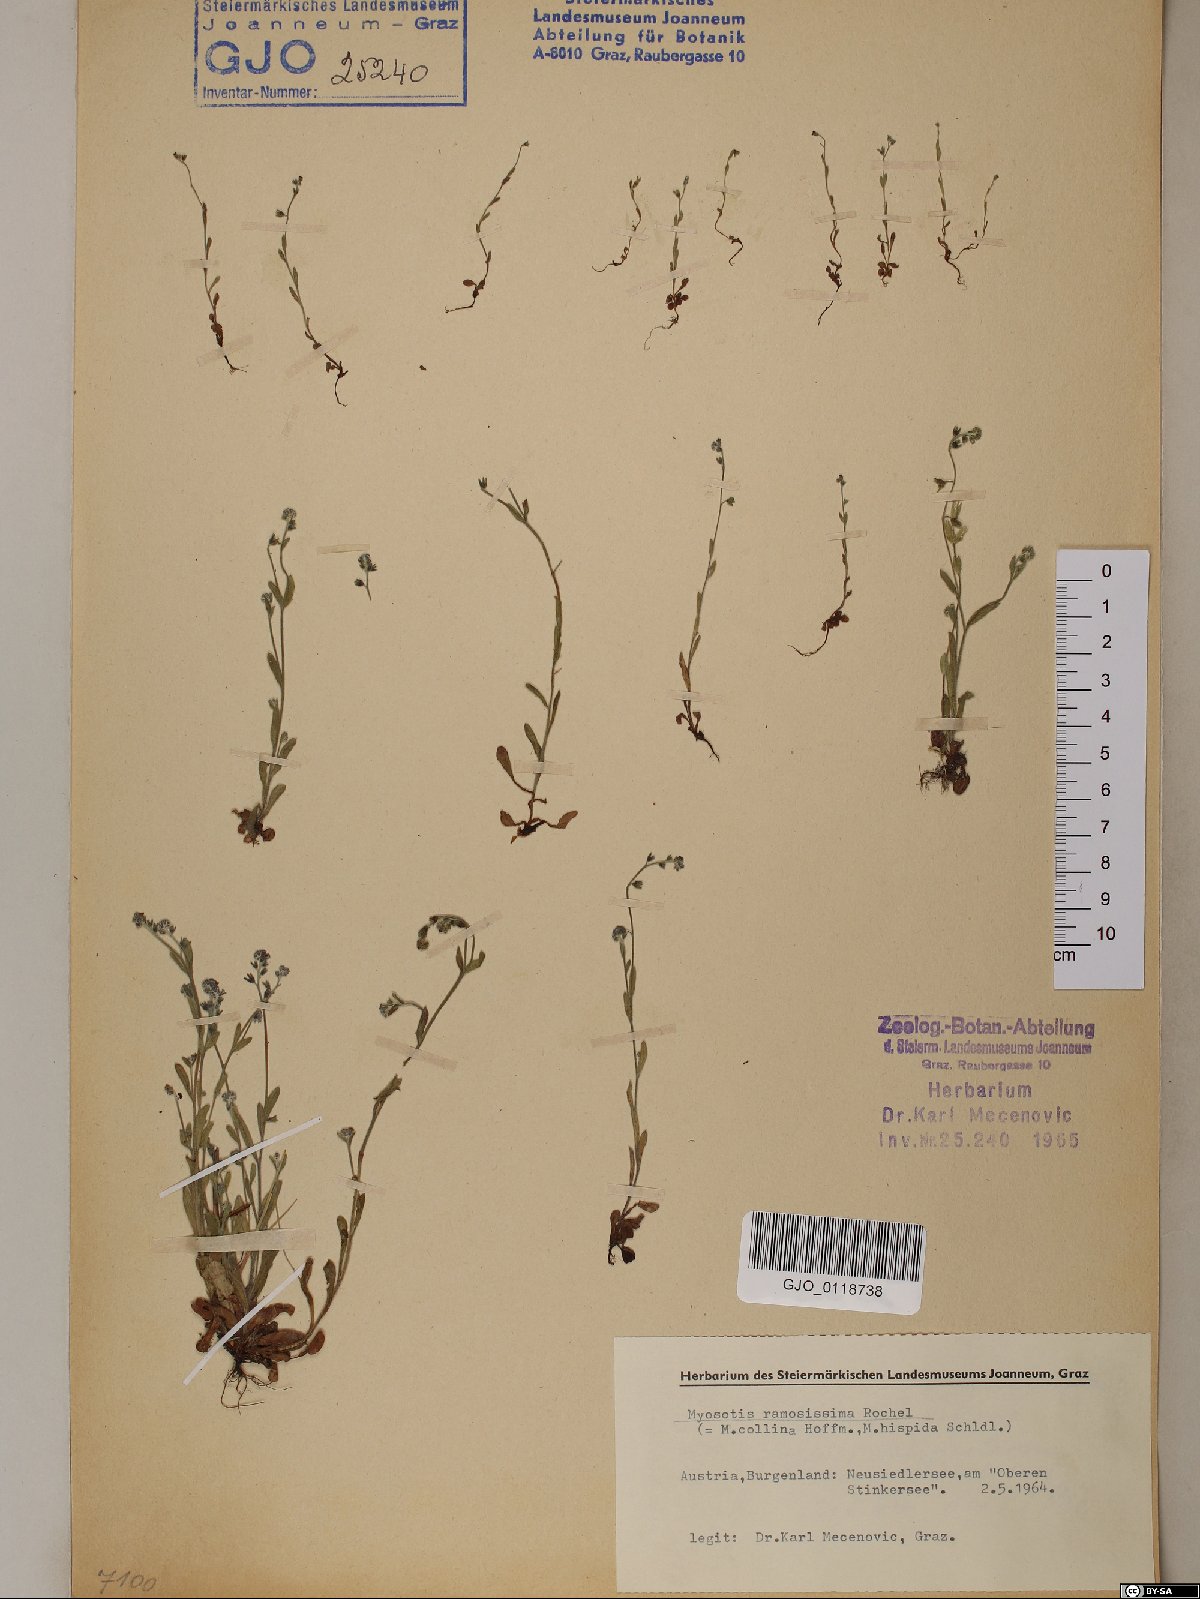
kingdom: Plantae
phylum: Tracheophyta
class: Magnoliopsida
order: Boraginales
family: Boraginaceae
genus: Myosotis
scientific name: Myosotis ramosissima
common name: Early forget-me-not
